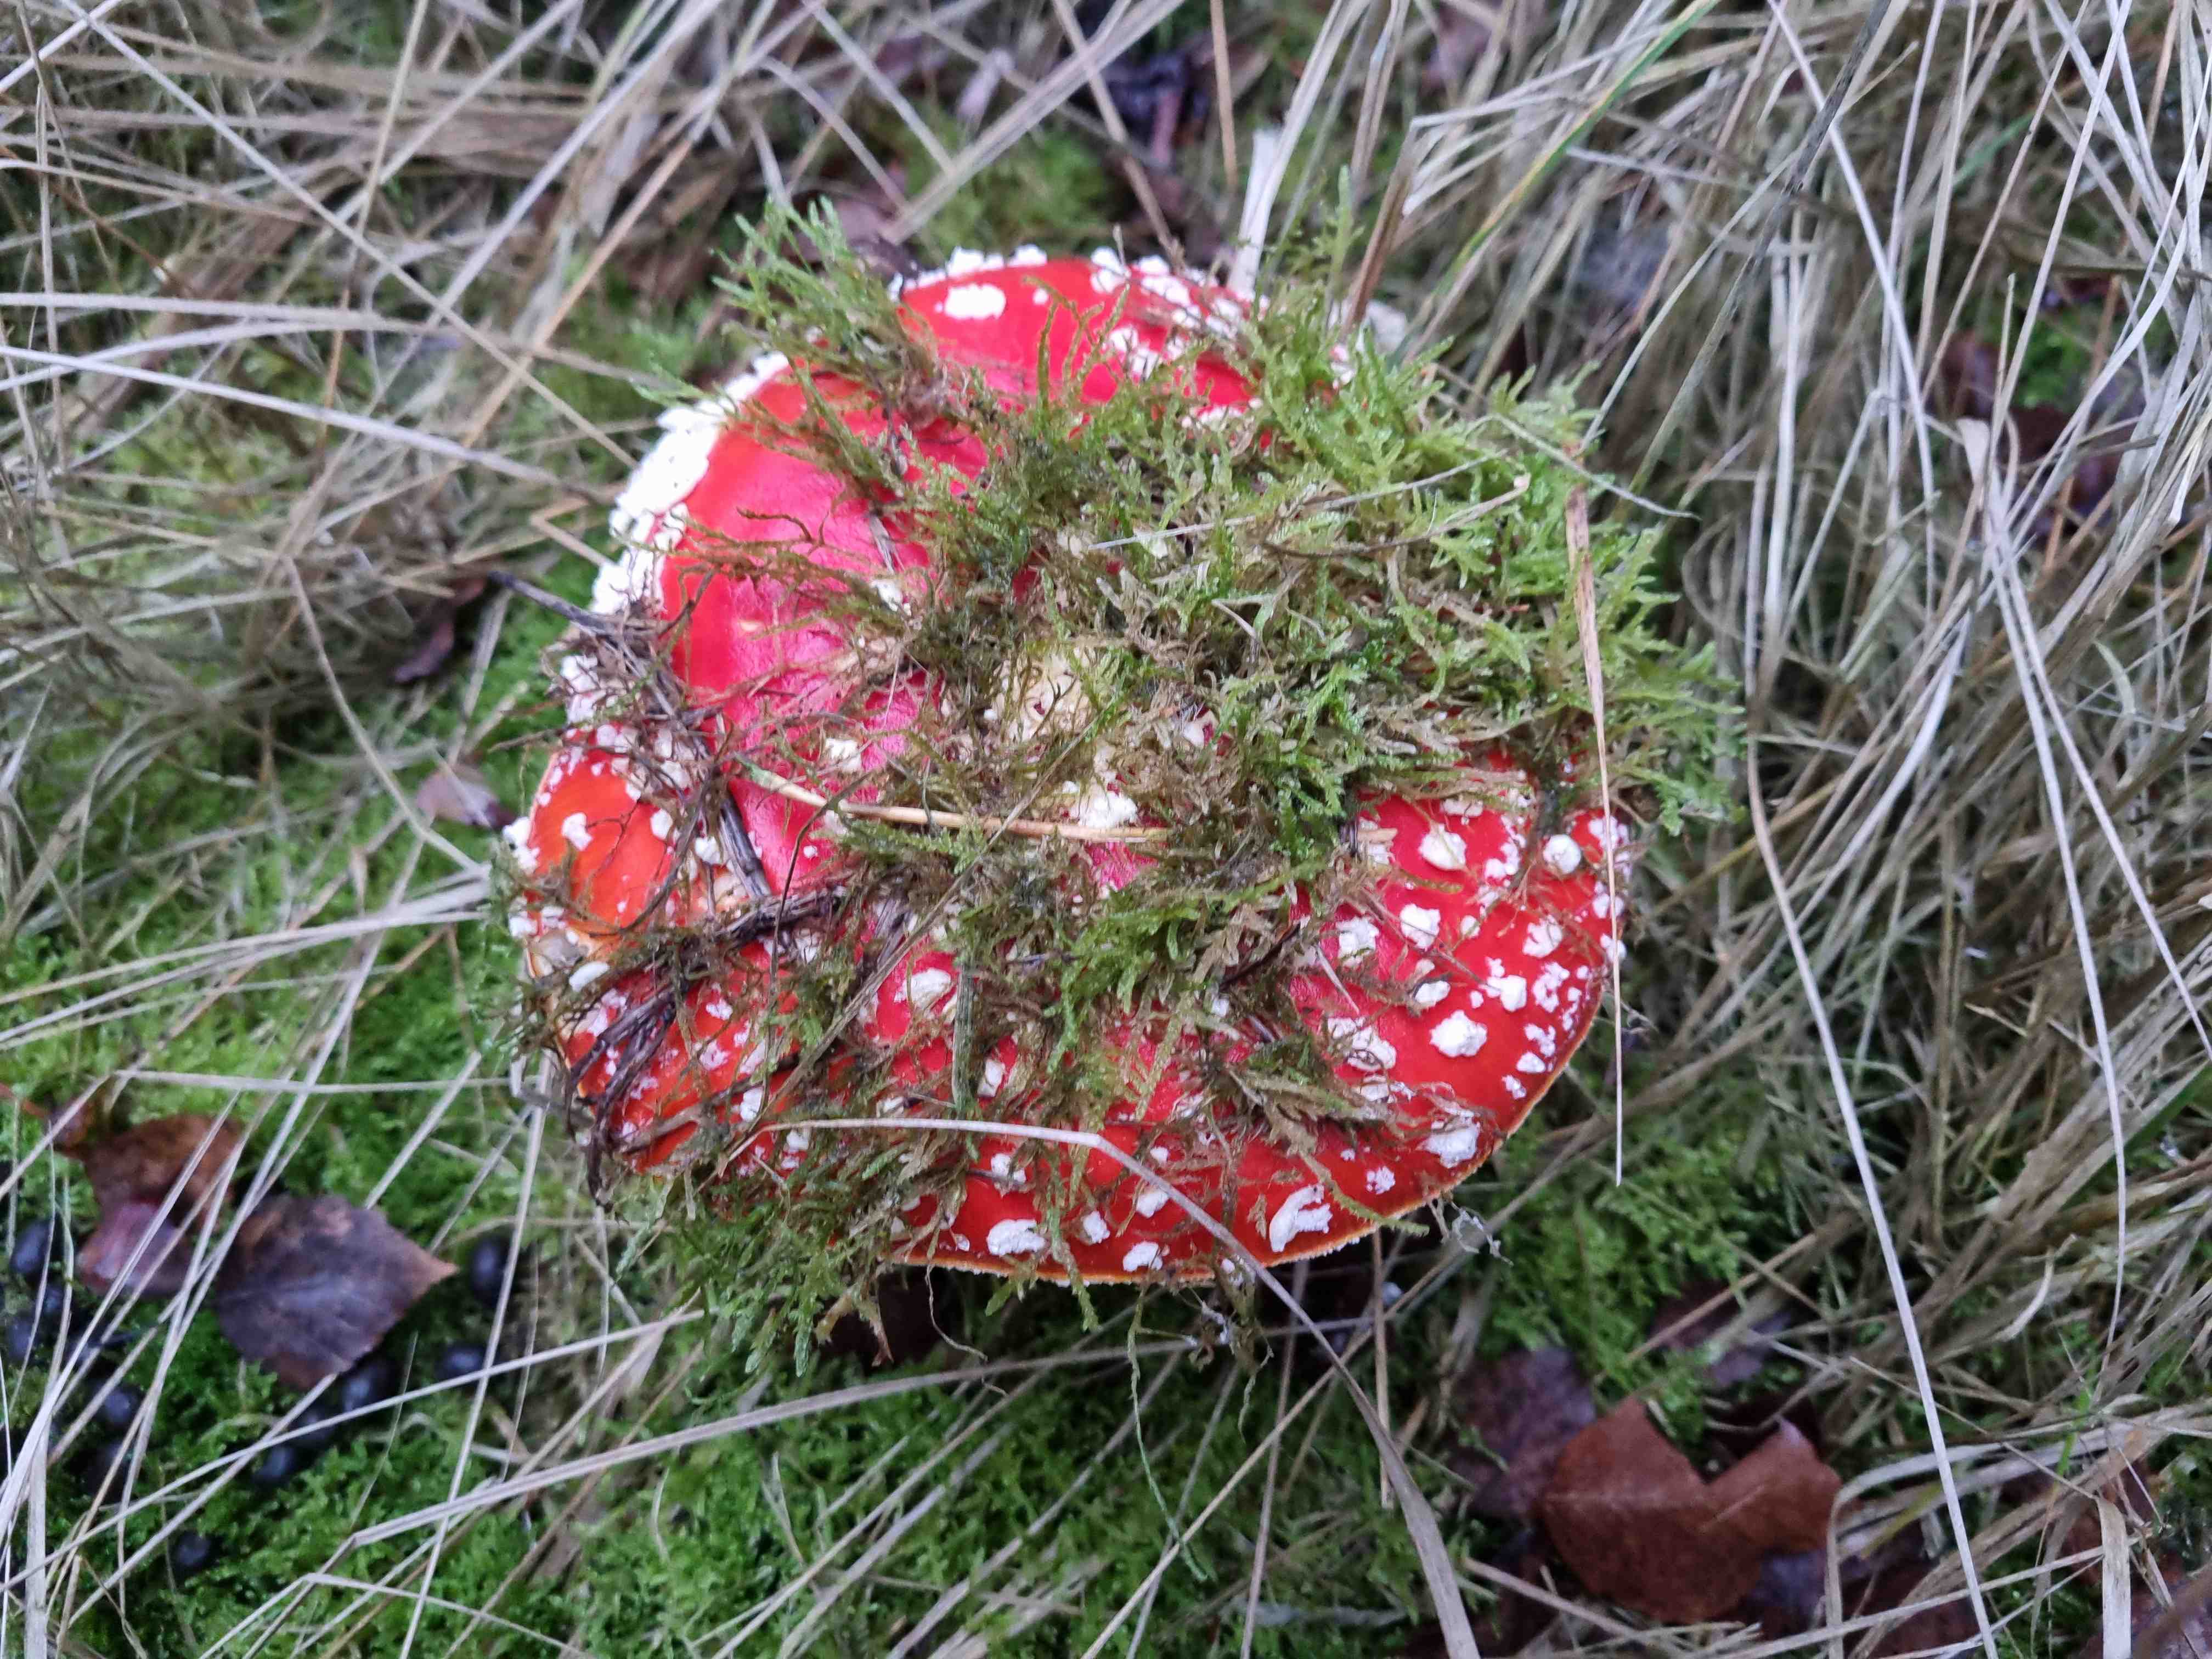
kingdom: Fungi
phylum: Basidiomycota
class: Agaricomycetes
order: Agaricales
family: Amanitaceae
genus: Amanita
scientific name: Amanita muscaria
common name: rød fluesvamp
